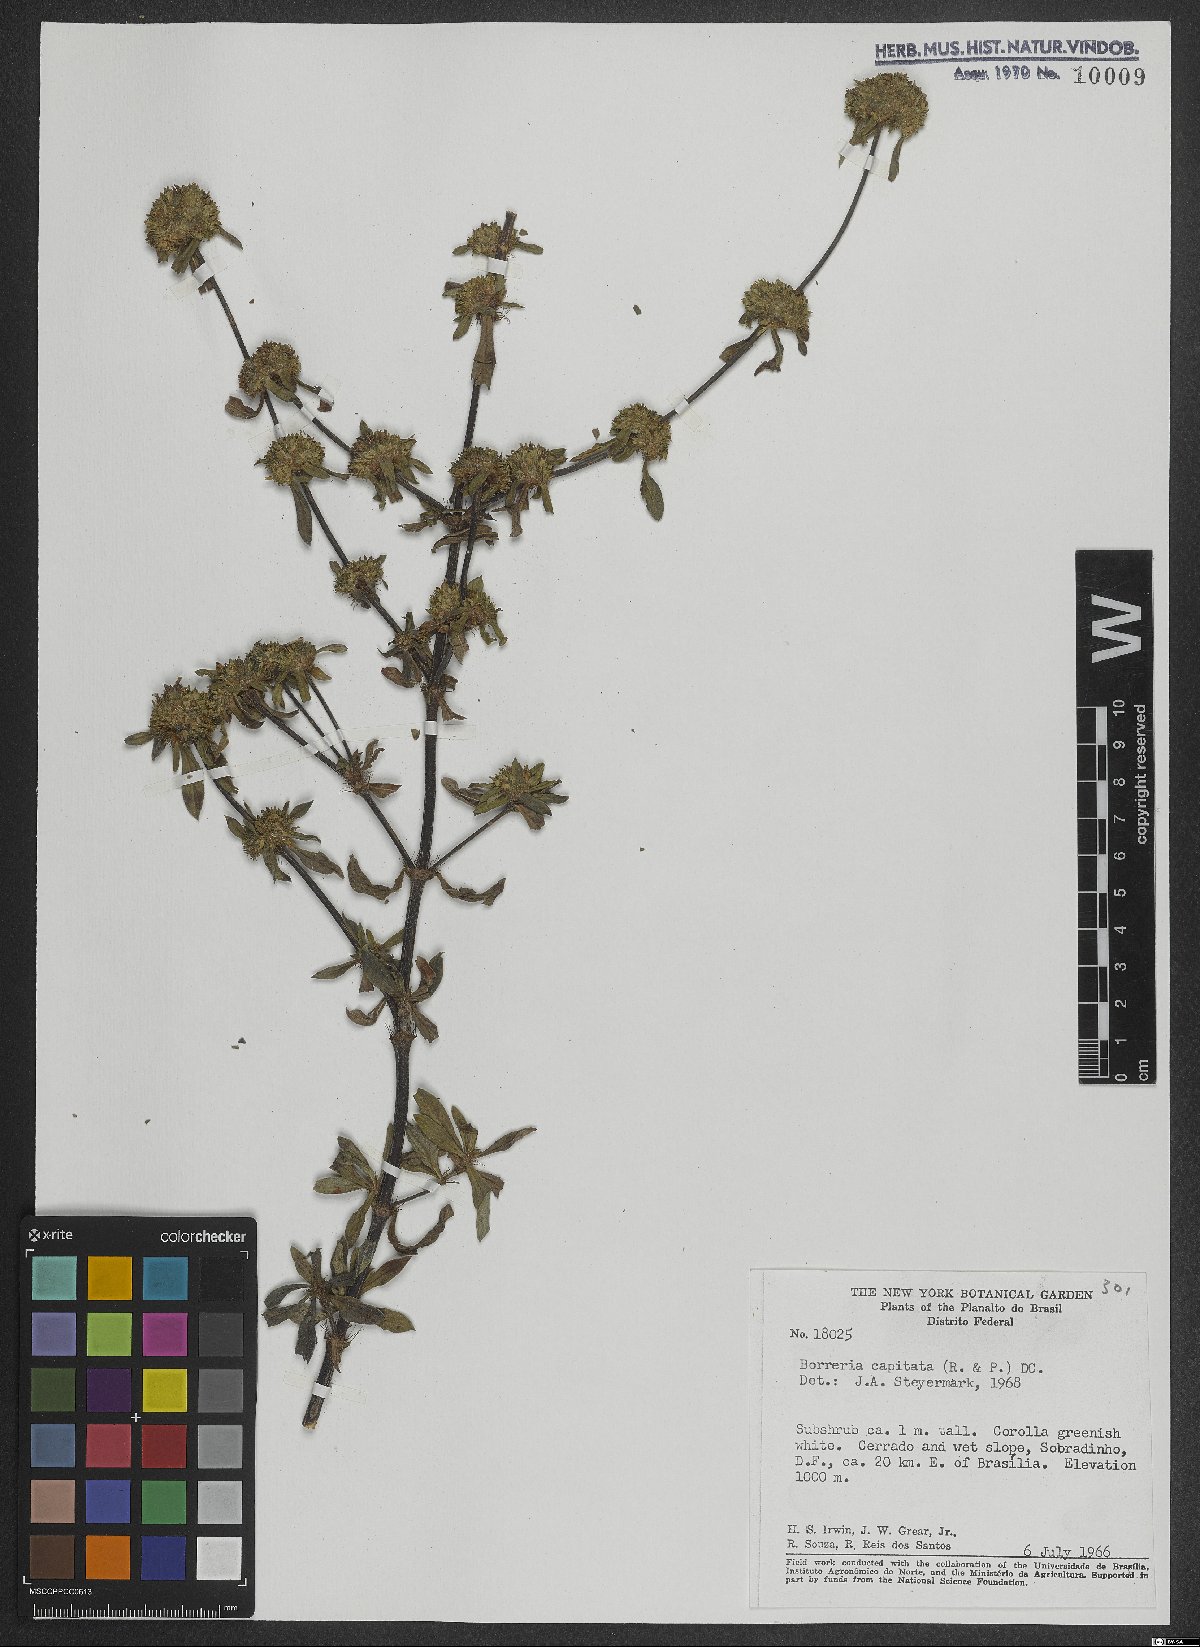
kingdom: Plantae
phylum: Tracheophyta
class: Magnoliopsida
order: Gentianales
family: Rubiaceae
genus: Spermacoce
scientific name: Spermacoce capitata
